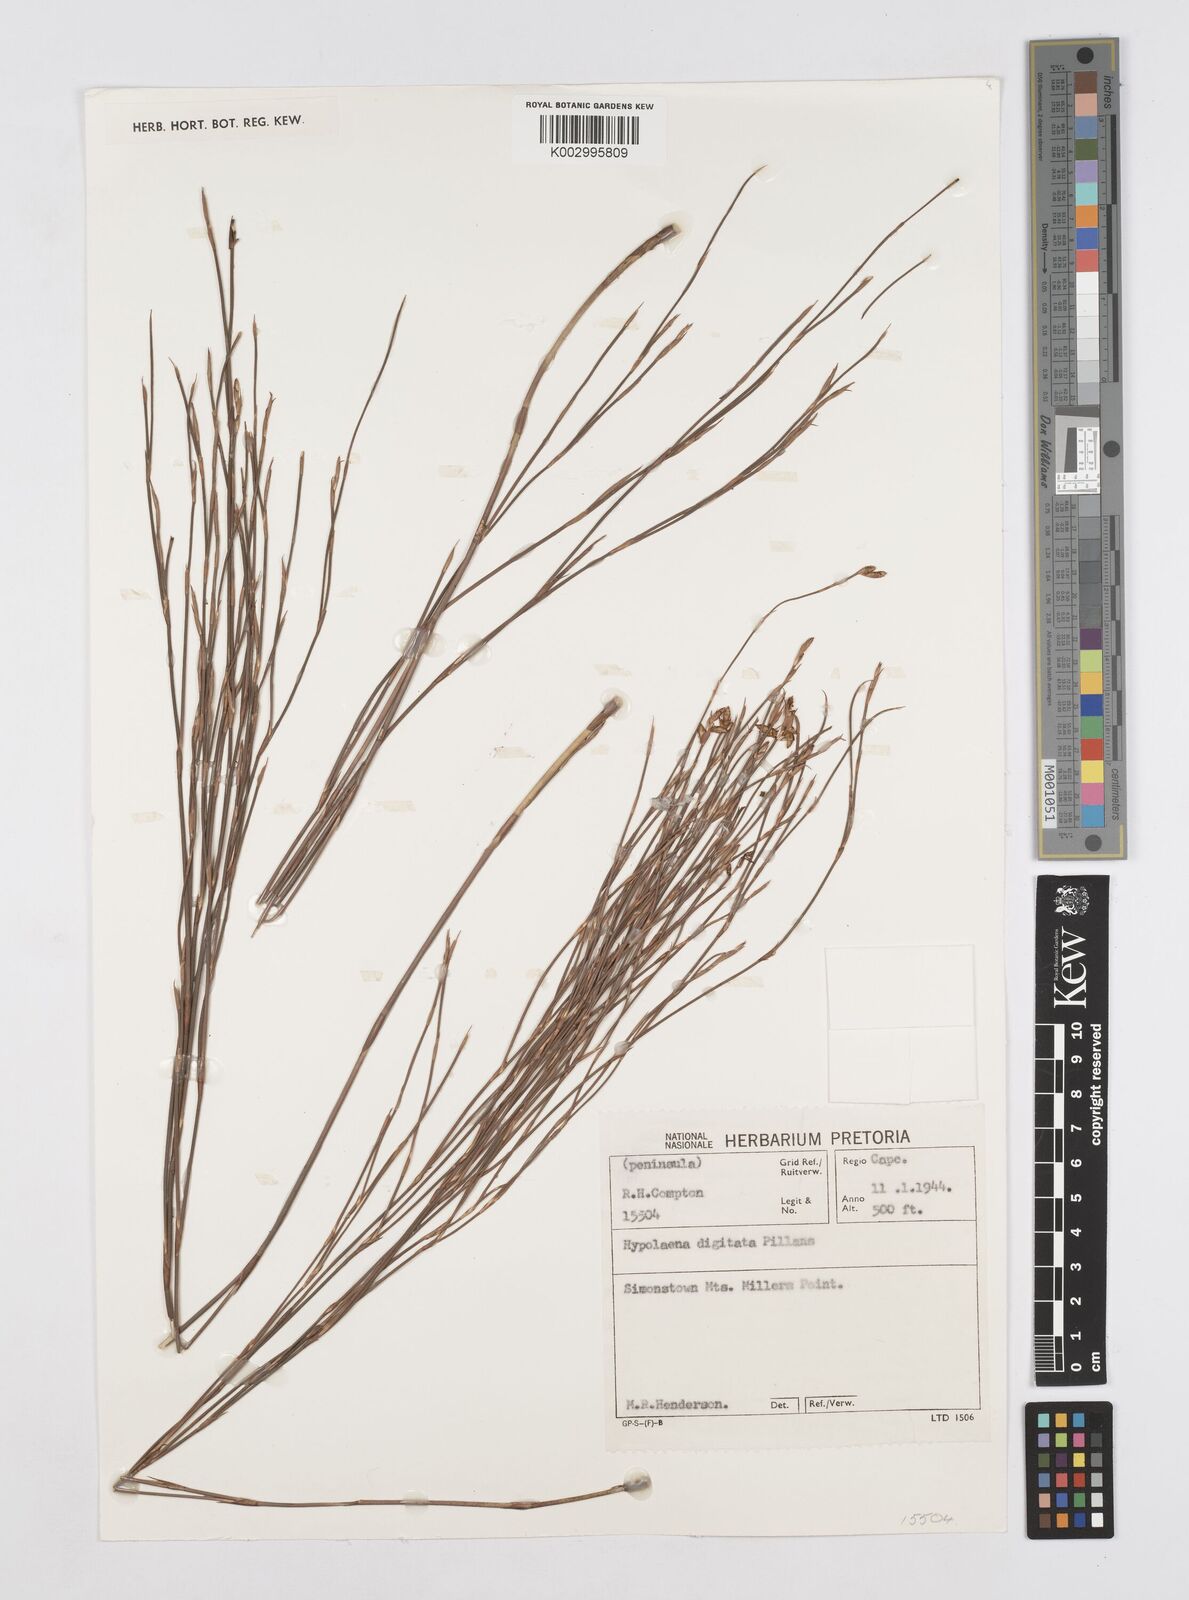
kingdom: Plantae
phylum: Tracheophyta
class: Liliopsida
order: Poales
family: Restionaceae
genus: Mastersiella
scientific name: Mastersiella digitata
